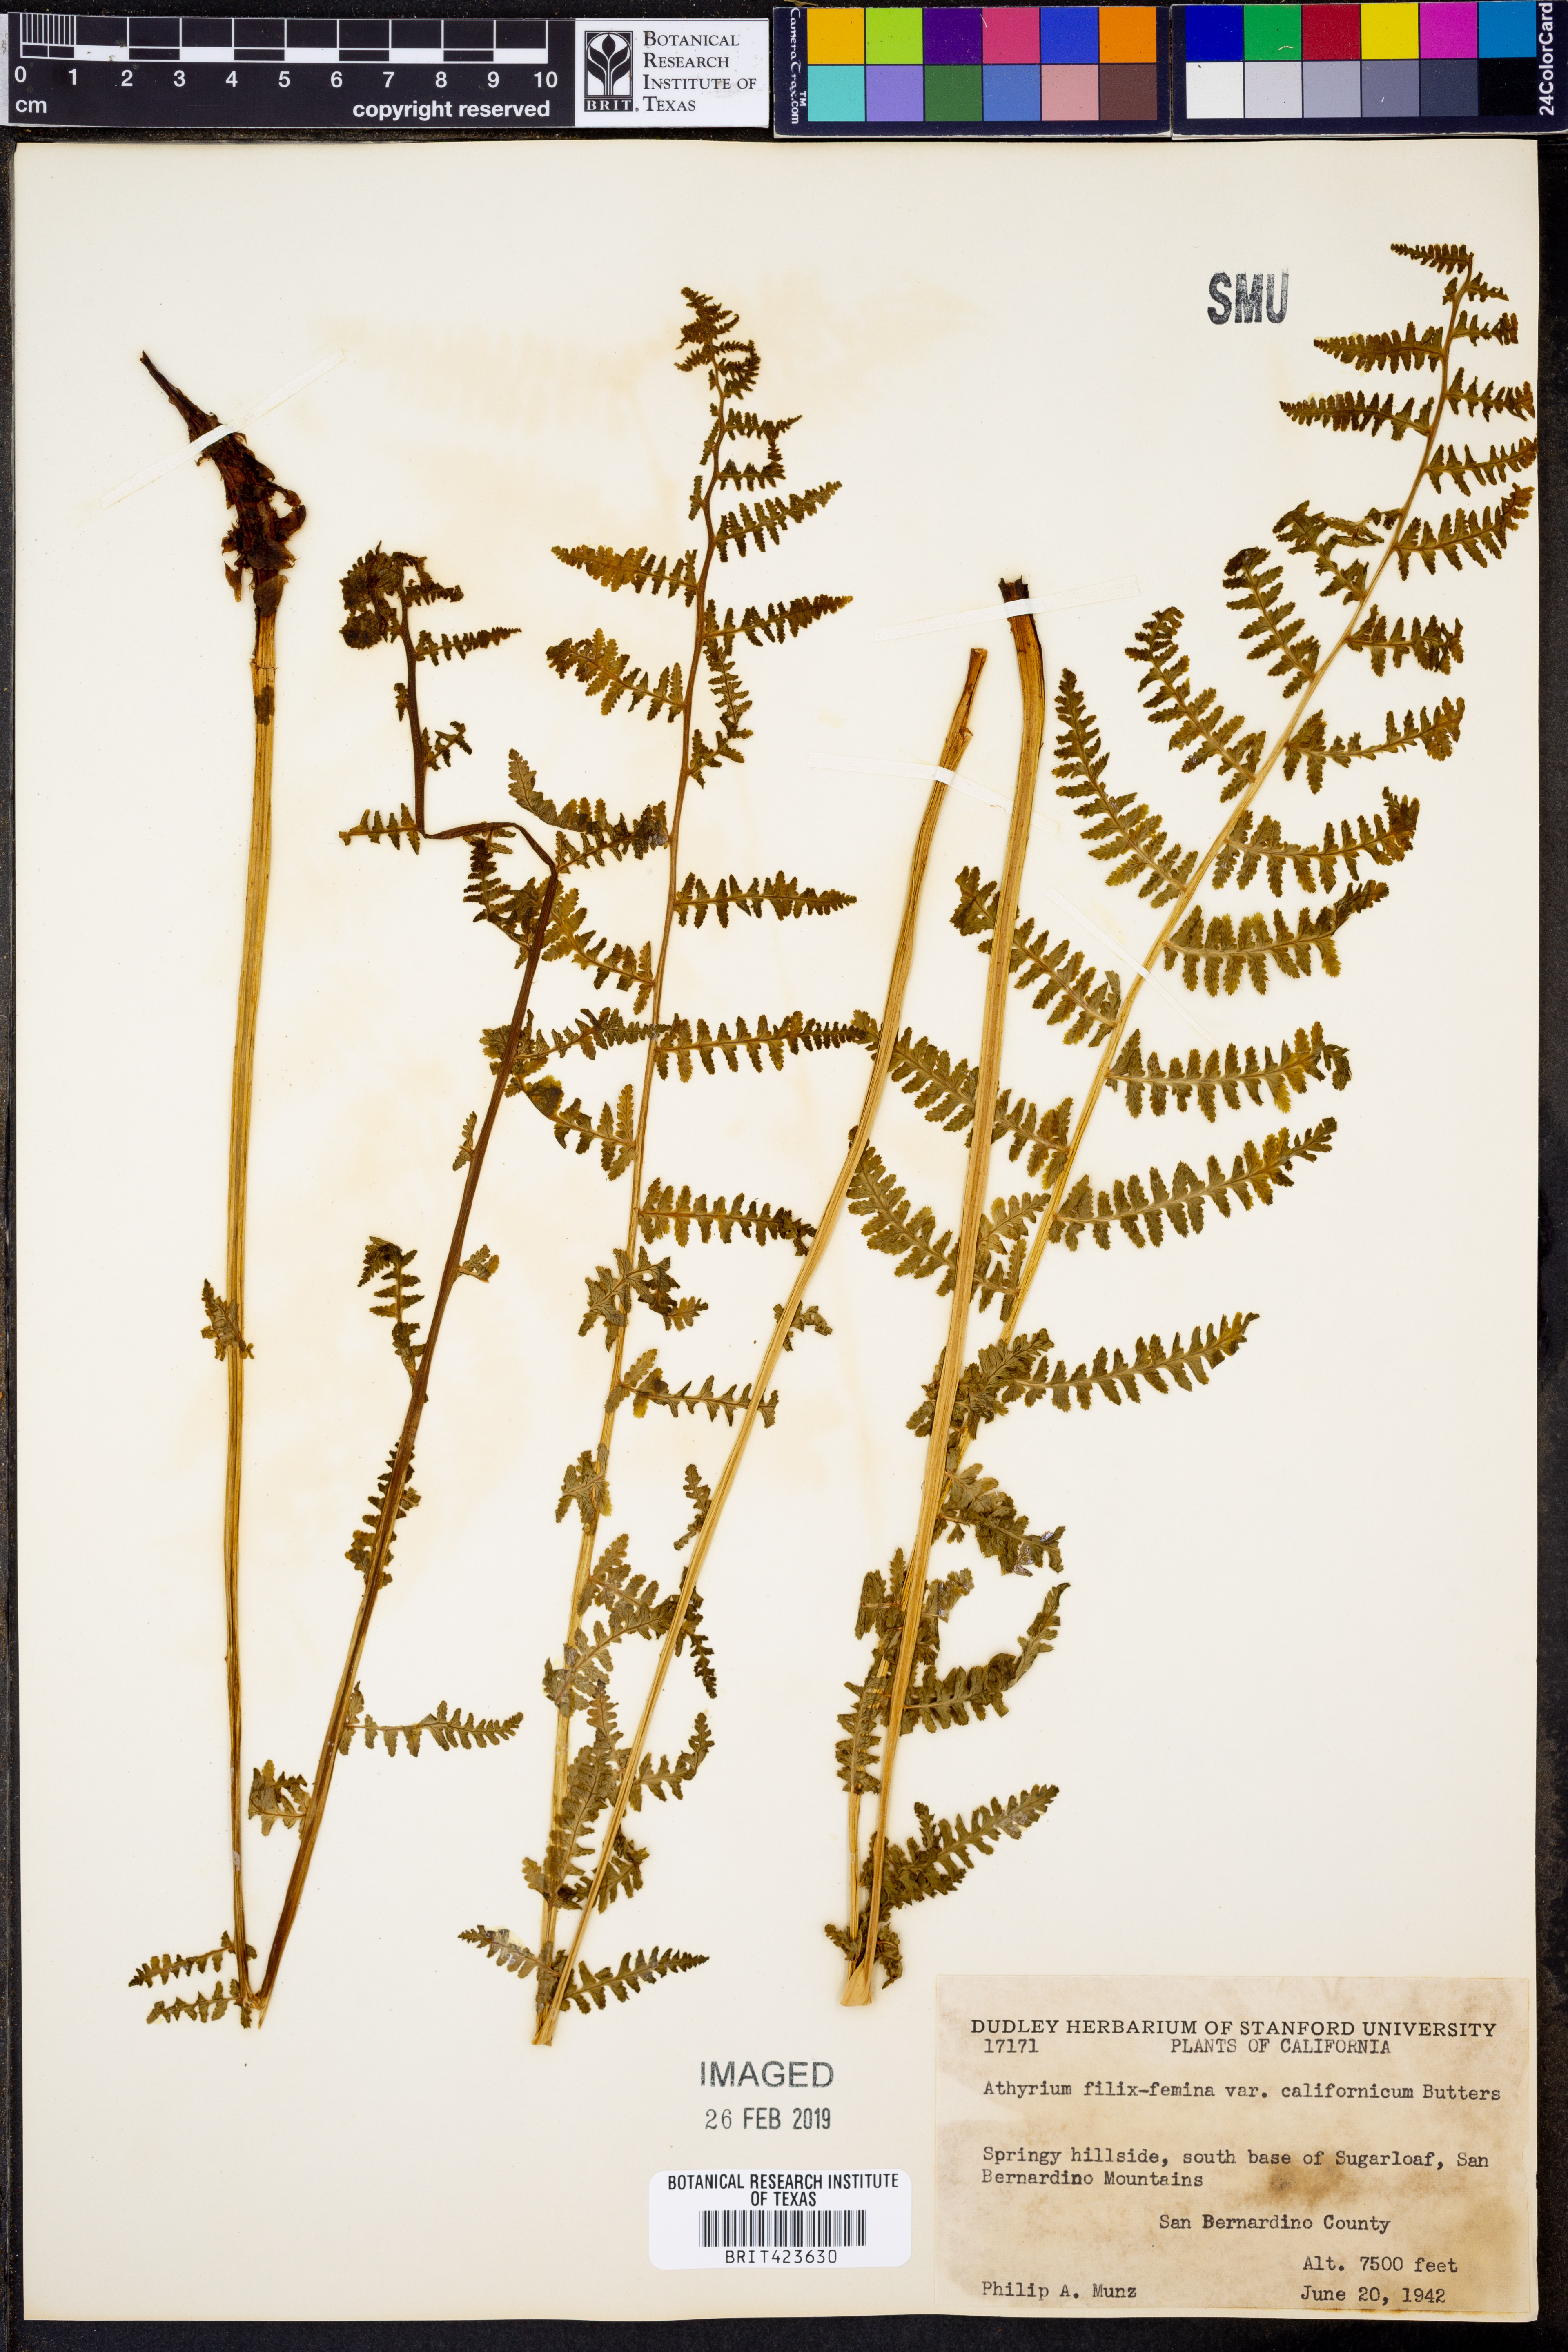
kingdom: Plantae
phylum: Tracheophyta
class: Polypodiopsida
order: Polypodiales
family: Athyriaceae
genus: Athyrium
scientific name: Athyrium filix-femina
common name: Lady fern
